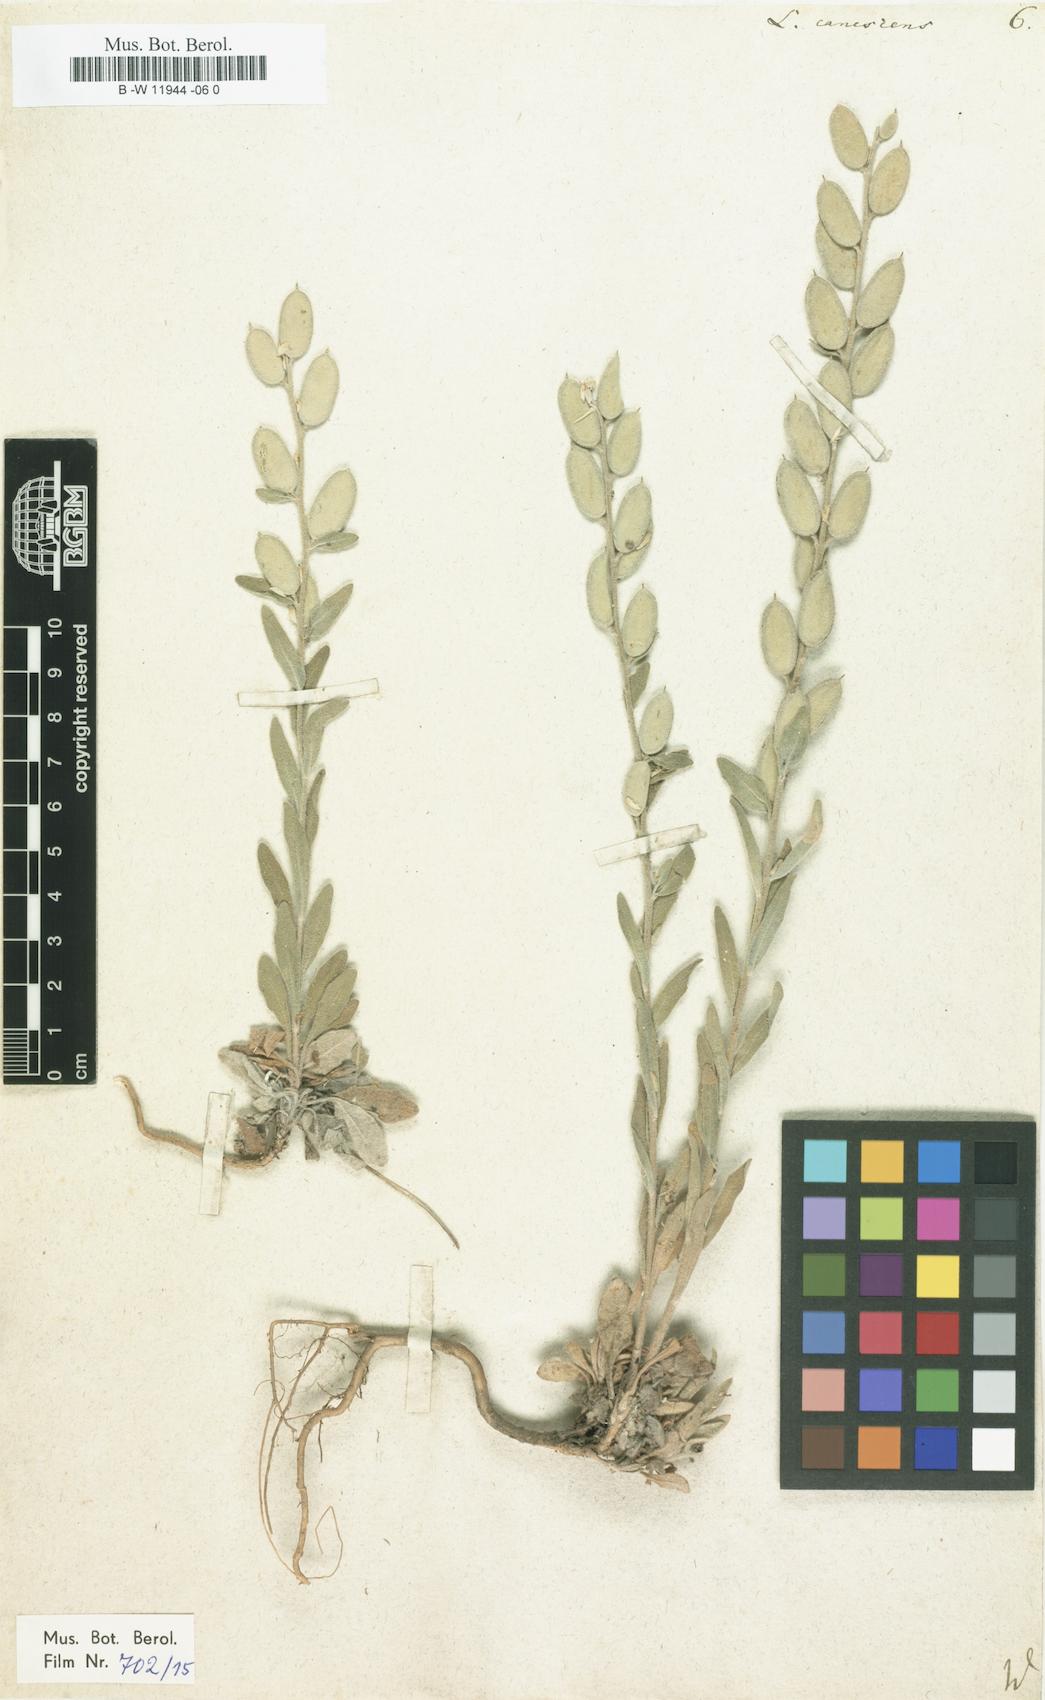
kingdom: Plantae
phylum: Tracheophyta
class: Magnoliopsida
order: Brassicales
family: Brassicaceae
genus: Fibigia
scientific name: Fibigia clypeata
